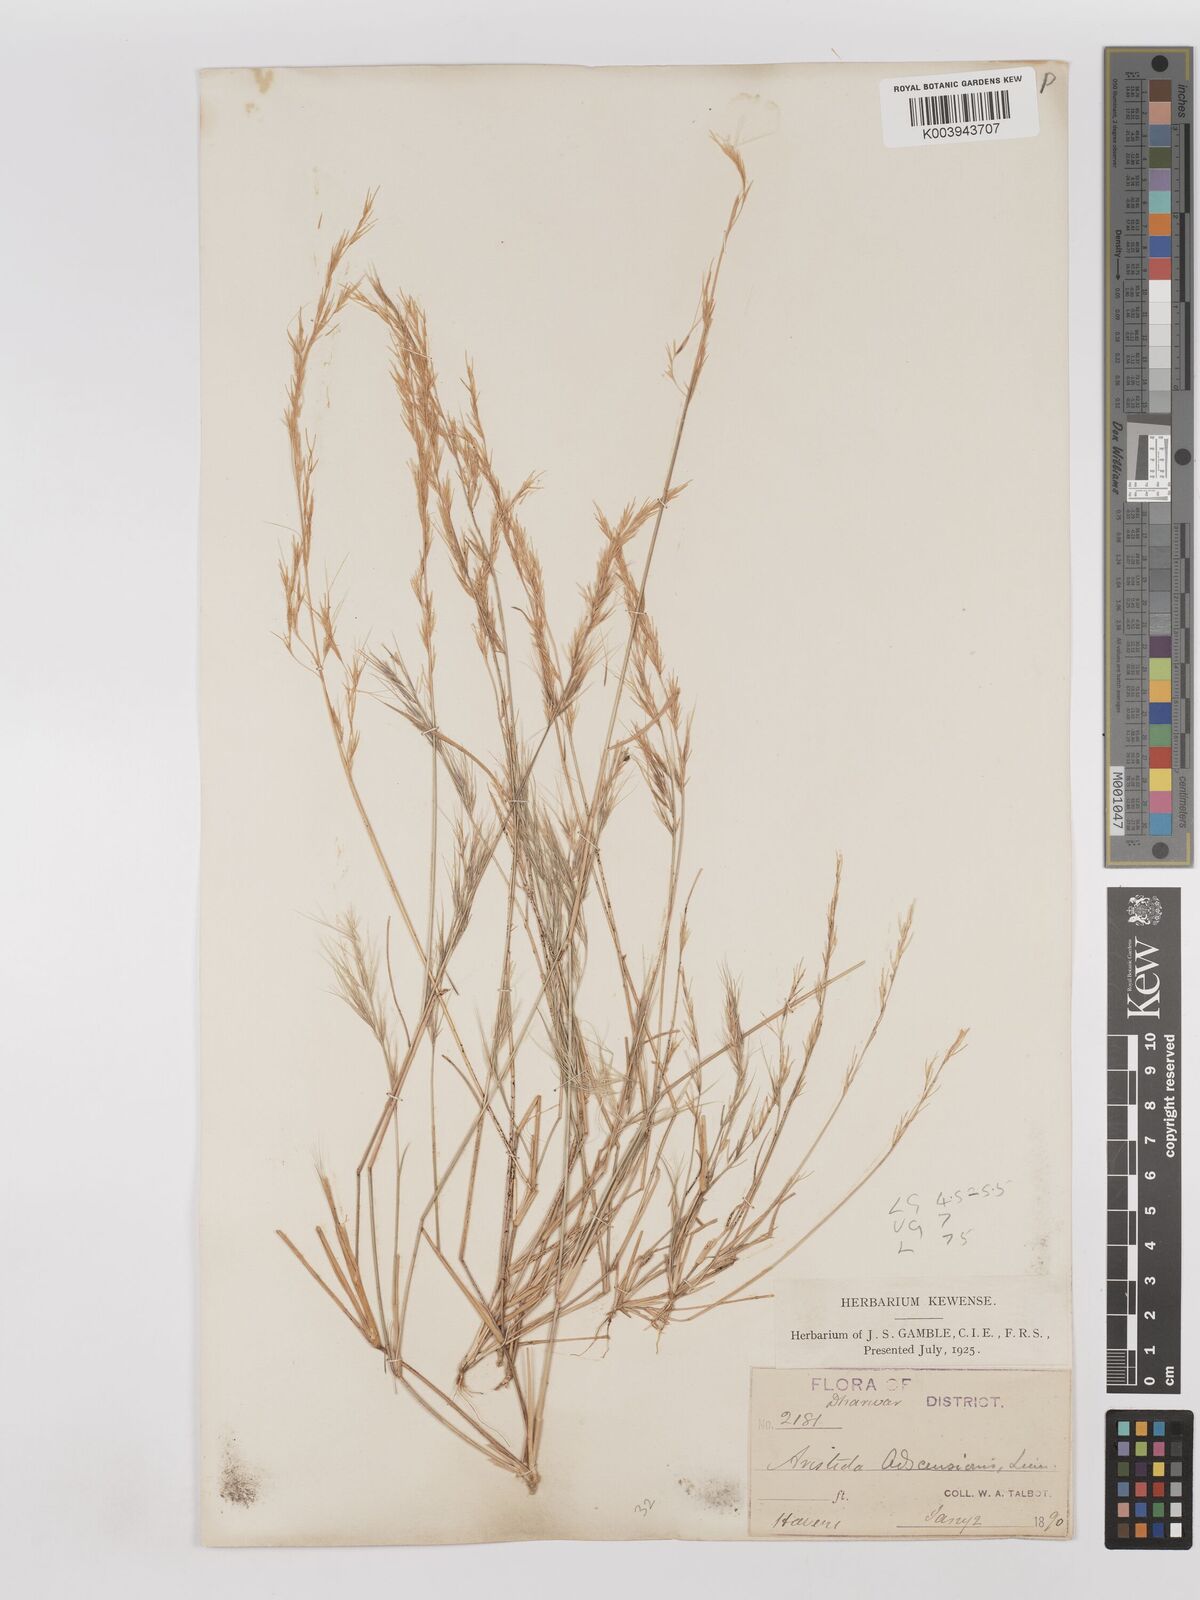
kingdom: Plantae
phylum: Tracheophyta
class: Liliopsida
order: Poales
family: Poaceae
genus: Aristida
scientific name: Aristida adscensionis
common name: Sixweeks threeawn
